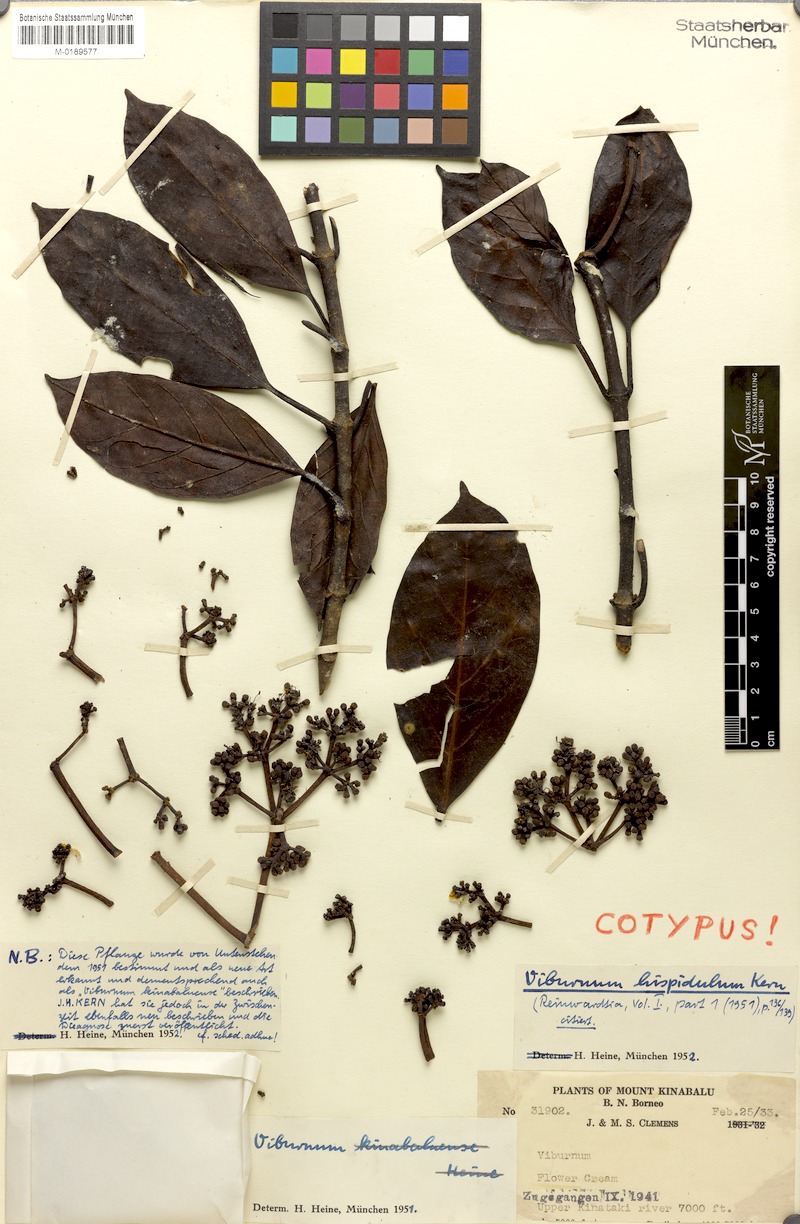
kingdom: Plantae
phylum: Tracheophyta
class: Magnoliopsida
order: Dipsacales
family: Viburnaceae
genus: Viburnum
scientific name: Viburnum hispidulum
